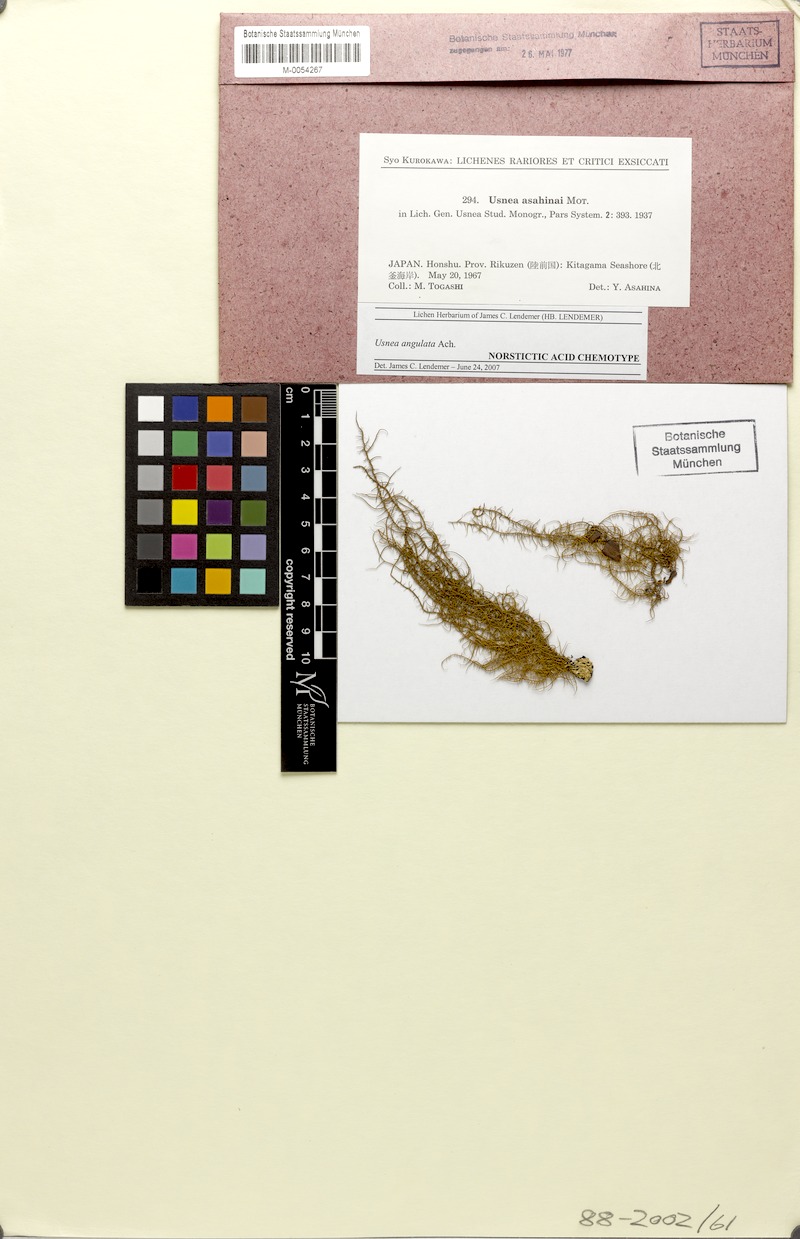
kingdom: Fungi
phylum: Ascomycota
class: Lecanoromycetes
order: Lecanorales
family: Parmeliaceae
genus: Usnea
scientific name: Usnea angulata
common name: Old-man’s beard lichen
